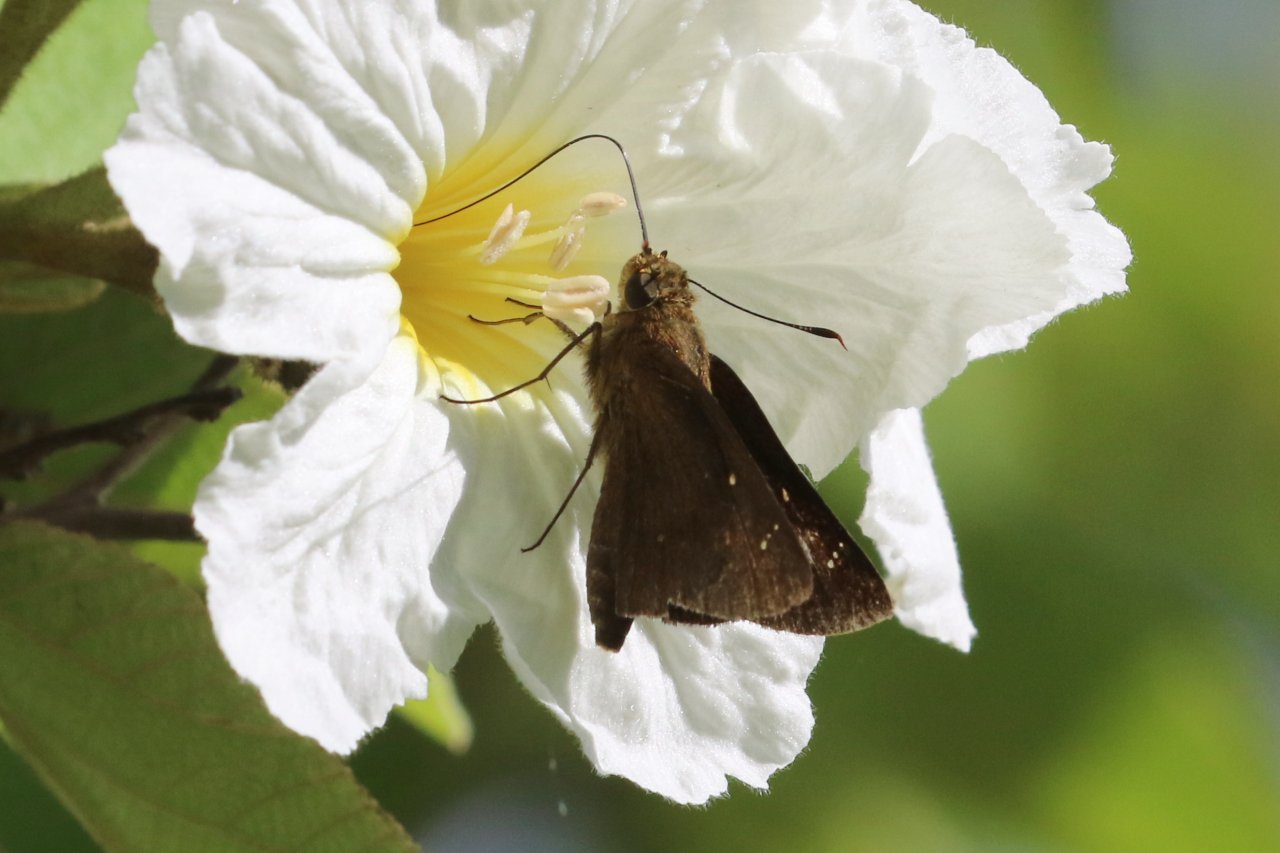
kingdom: Animalia
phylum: Arthropoda
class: Insecta
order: Lepidoptera
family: Hesperiidae
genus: Decinea
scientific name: Decinea percosius
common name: Double-dotted Skipper
